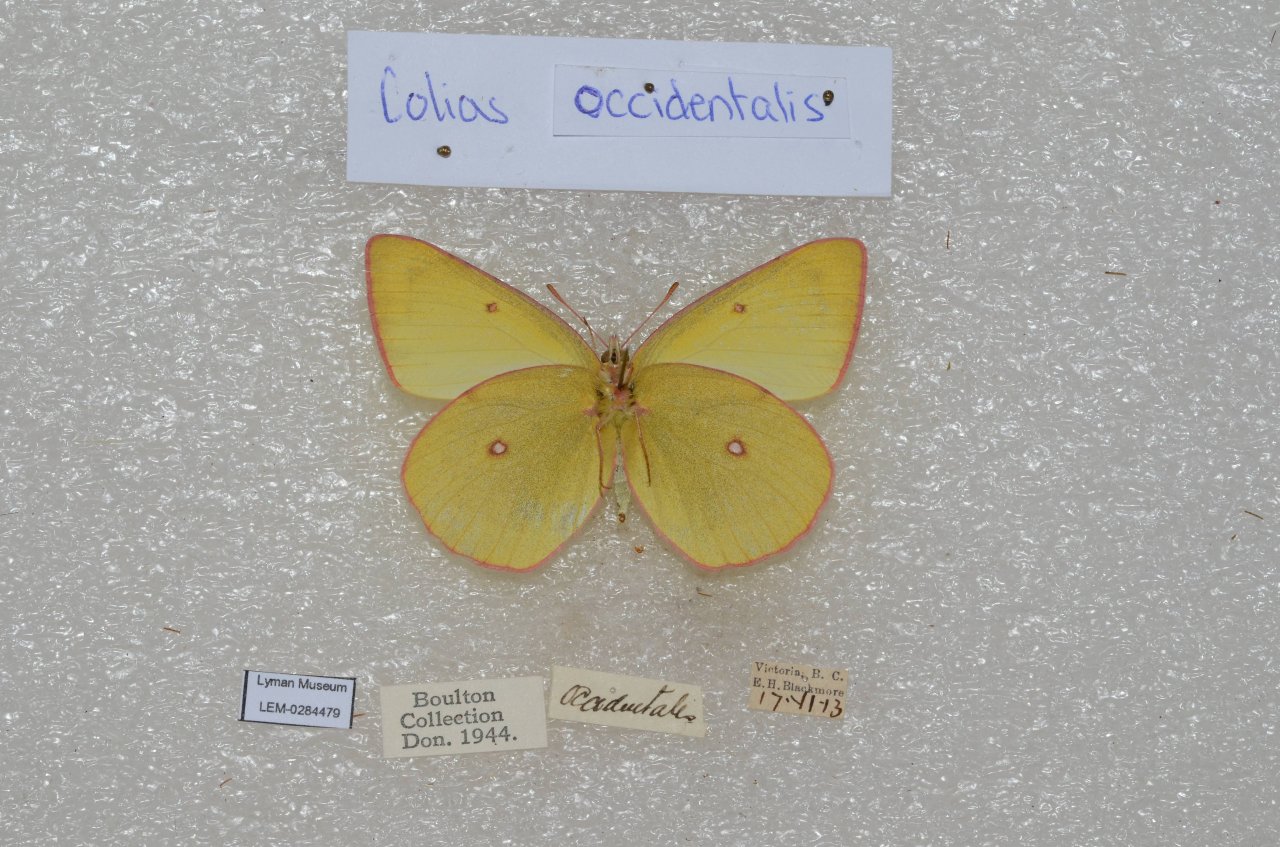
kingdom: Animalia
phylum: Arthropoda
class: Insecta
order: Lepidoptera
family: Pieridae
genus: Colias
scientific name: Colias occidentalis
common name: Western Sulphur
